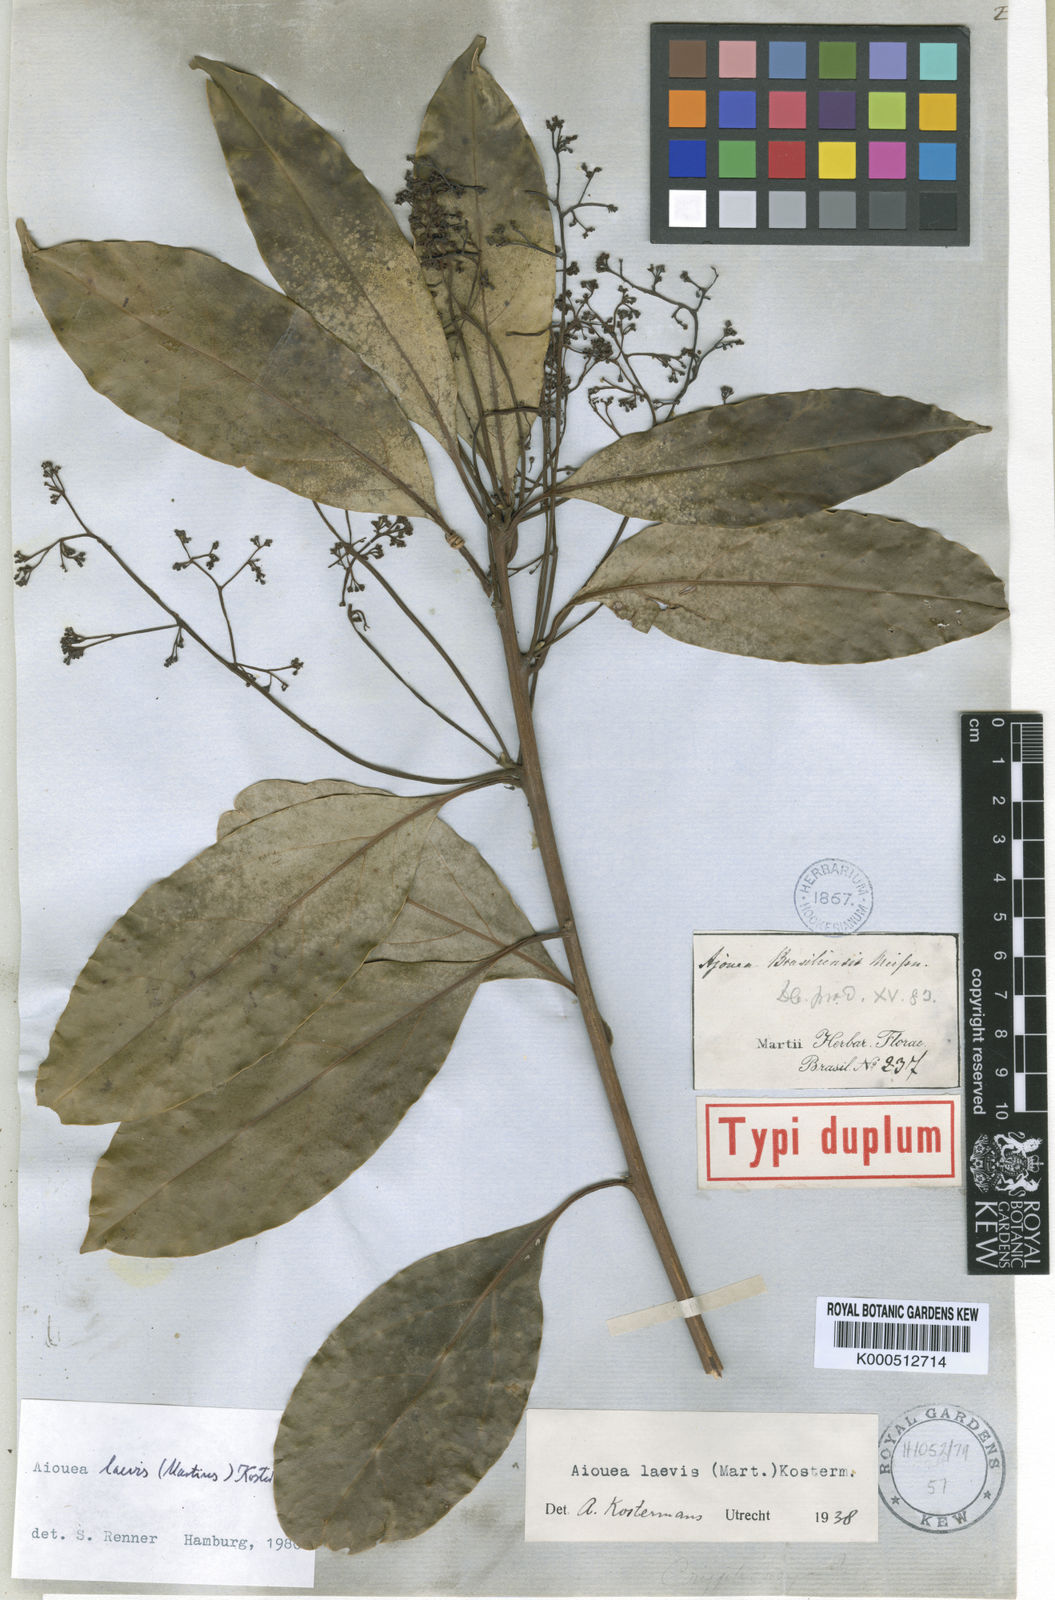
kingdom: Plantae
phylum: Tracheophyta
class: Magnoliopsida
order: Laurales
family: Lauraceae
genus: Aiouea
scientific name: Aiouea laevis
